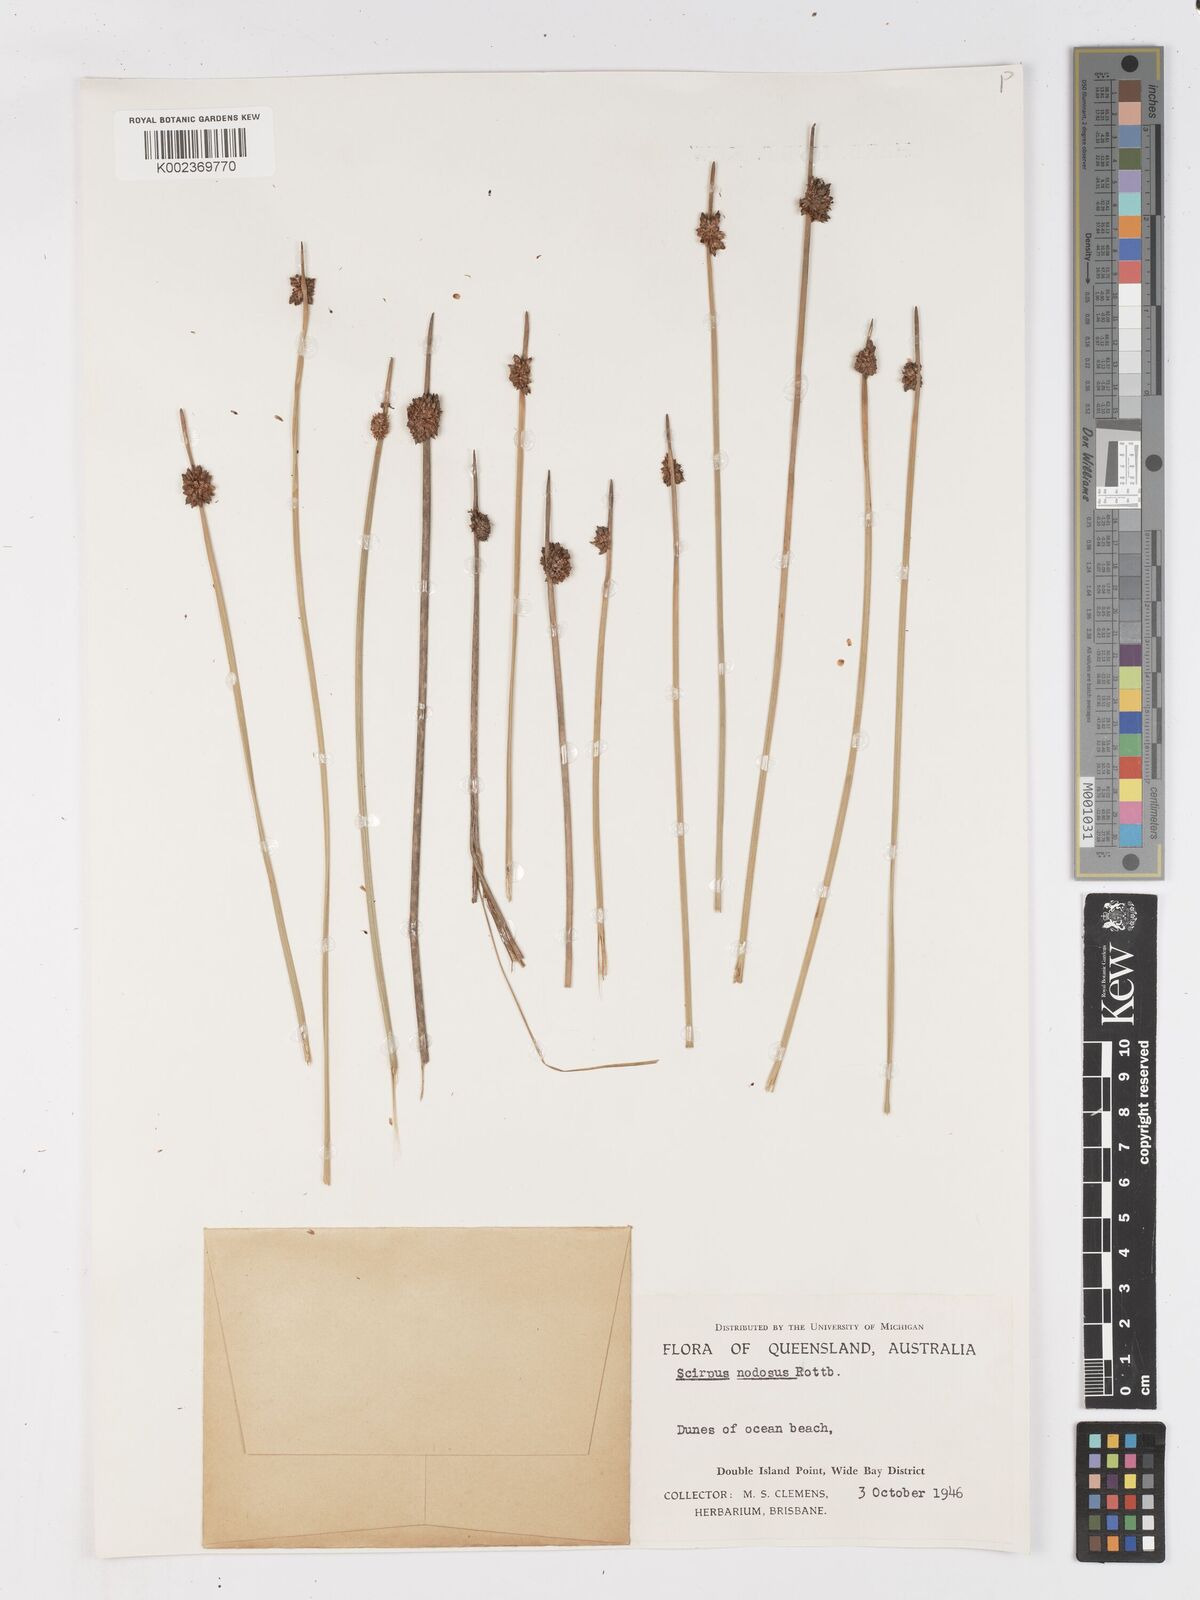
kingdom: Plantae
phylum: Tracheophyta
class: Liliopsida
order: Poales
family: Cyperaceae
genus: Ficinia
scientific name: Ficinia nodosa
